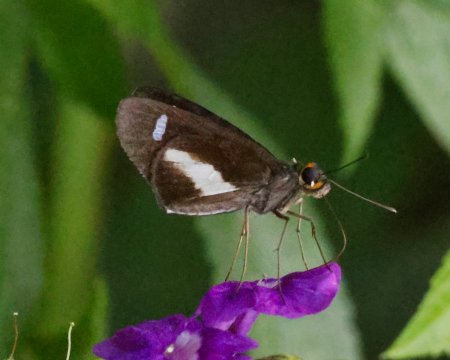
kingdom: Animalia
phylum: Arthropoda
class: Insecta
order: Lepidoptera
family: Hesperiidae
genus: Cobalus
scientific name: Cobalus calvina
